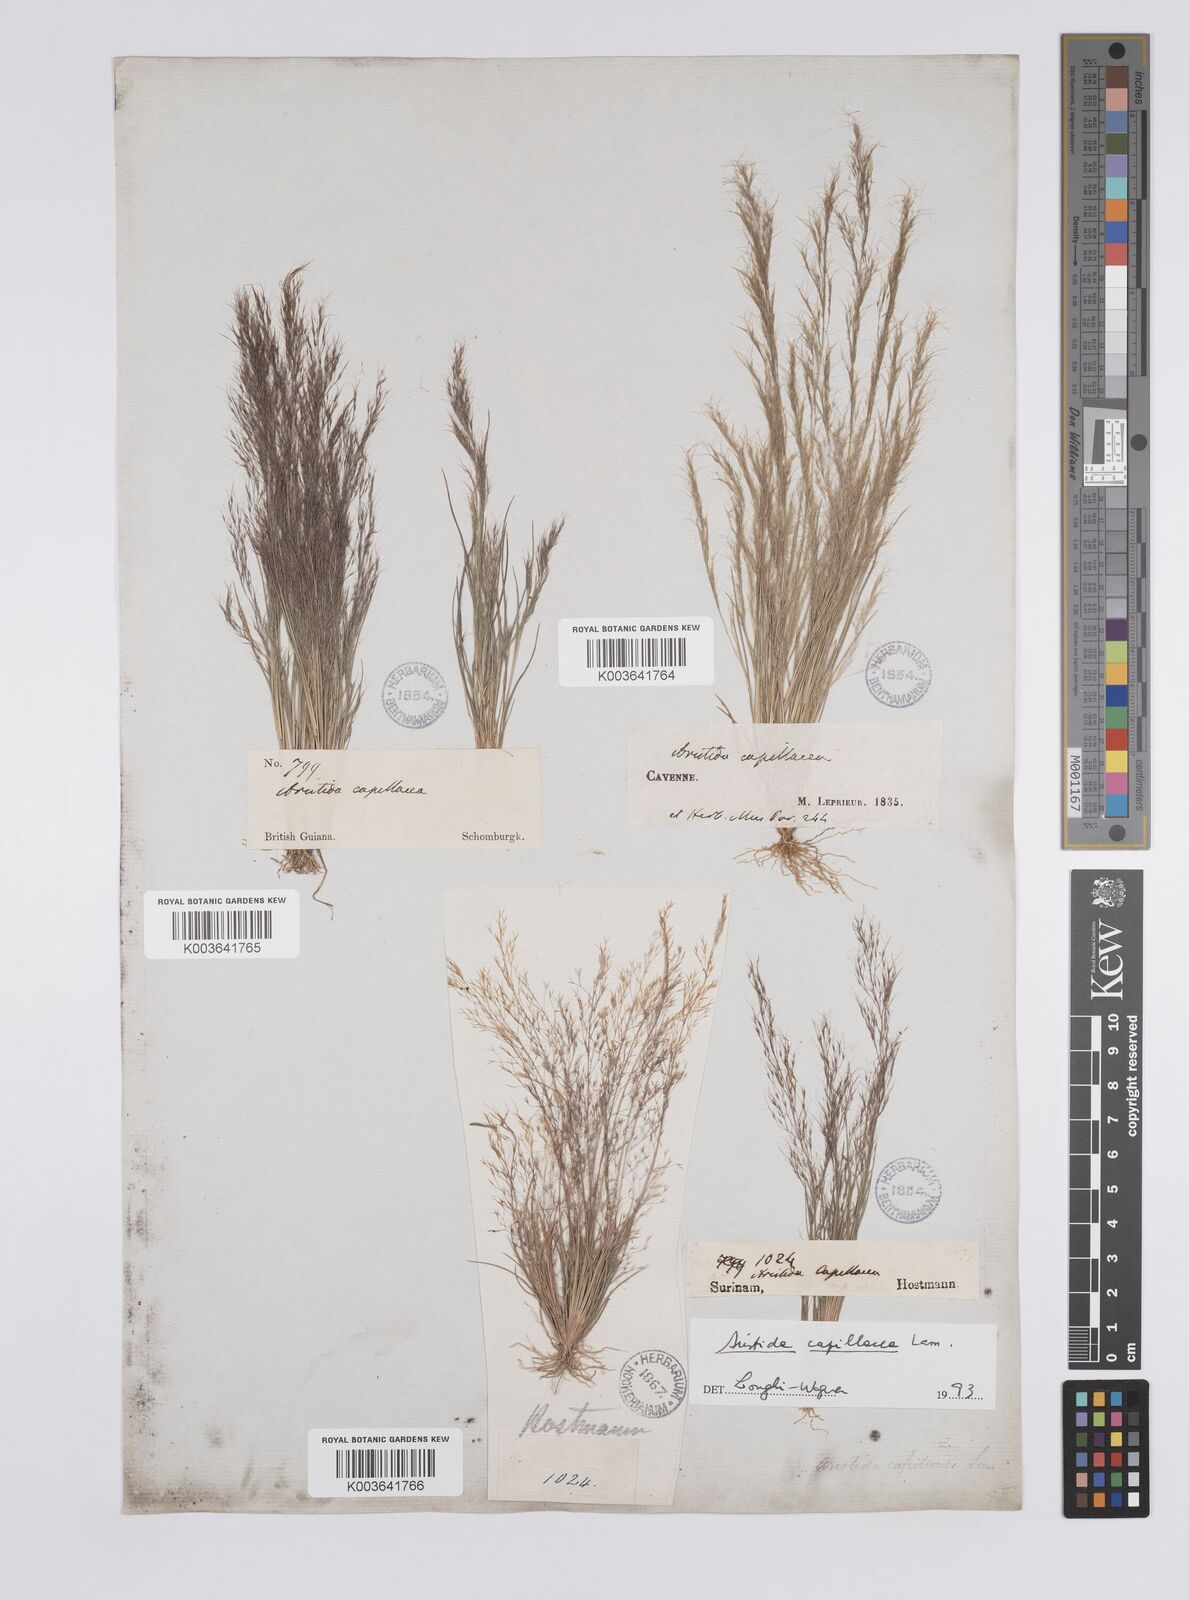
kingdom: Plantae
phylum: Tracheophyta
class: Liliopsida
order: Poales
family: Poaceae
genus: Aristida
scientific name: Aristida capillacea
